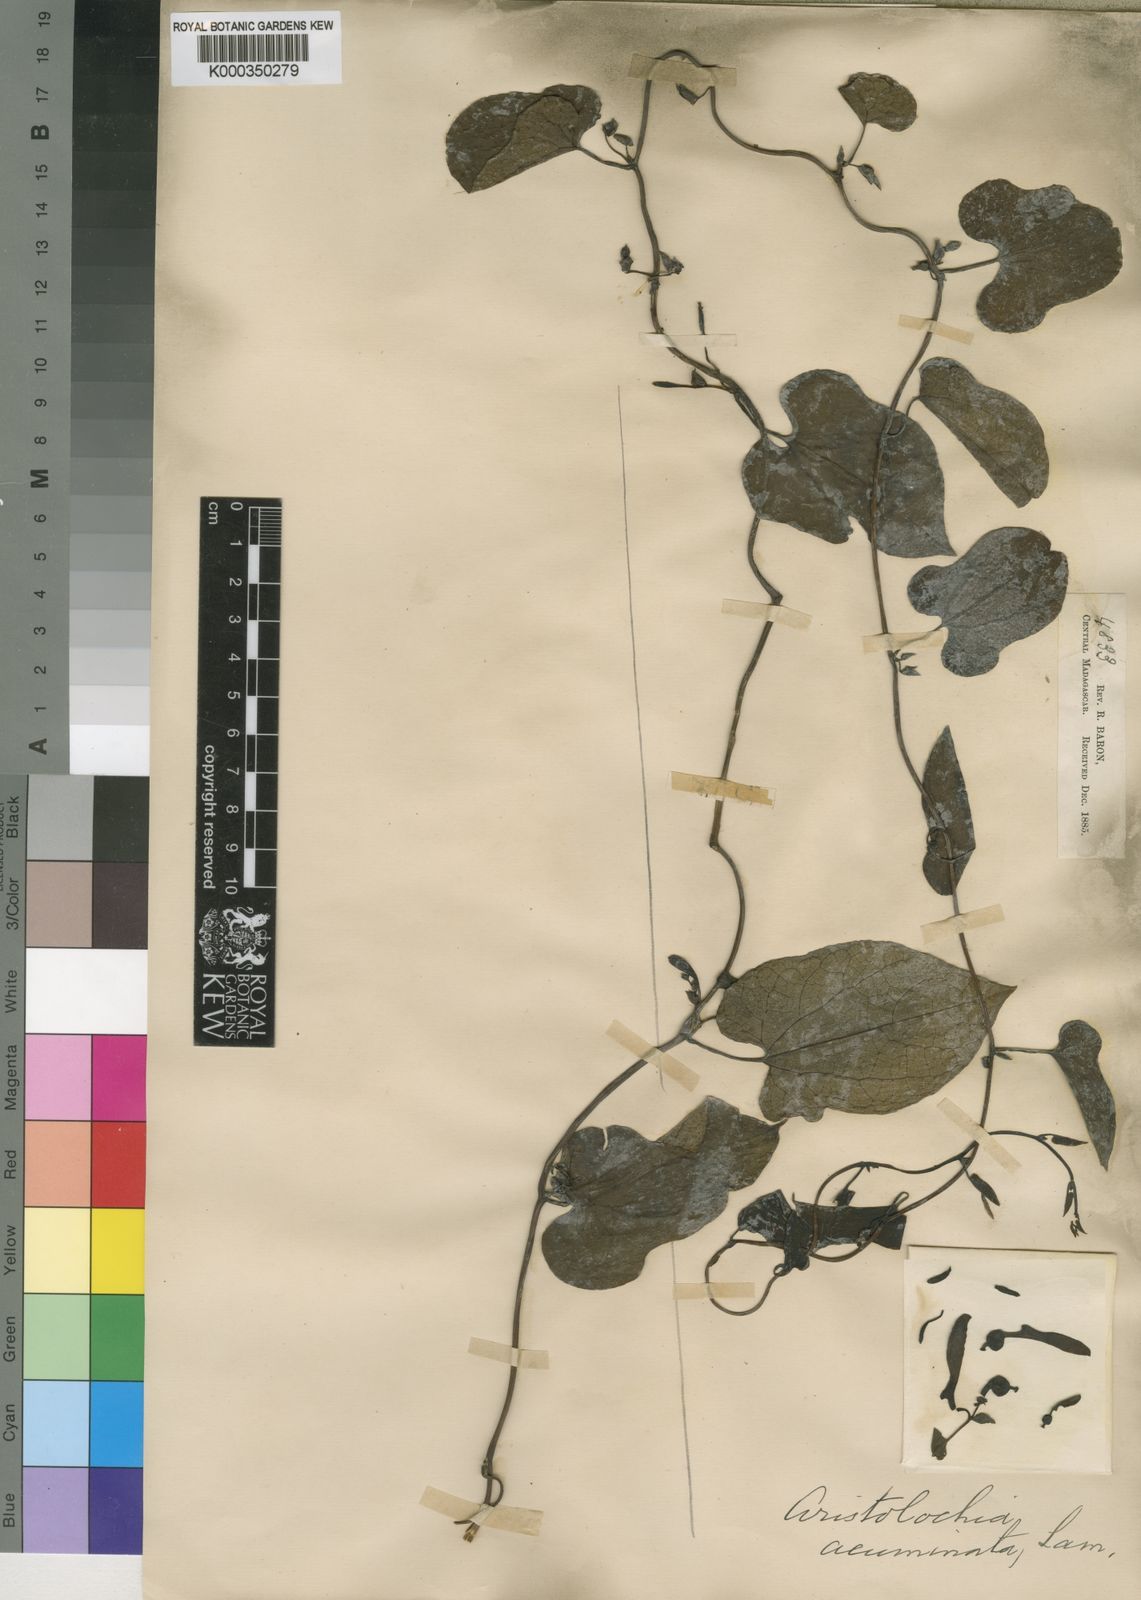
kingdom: Plantae
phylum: Tracheophyta
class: Magnoliopsida
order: Piperales
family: Aristolochiaceae
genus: Aristolochia
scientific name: Aristolochia albida
